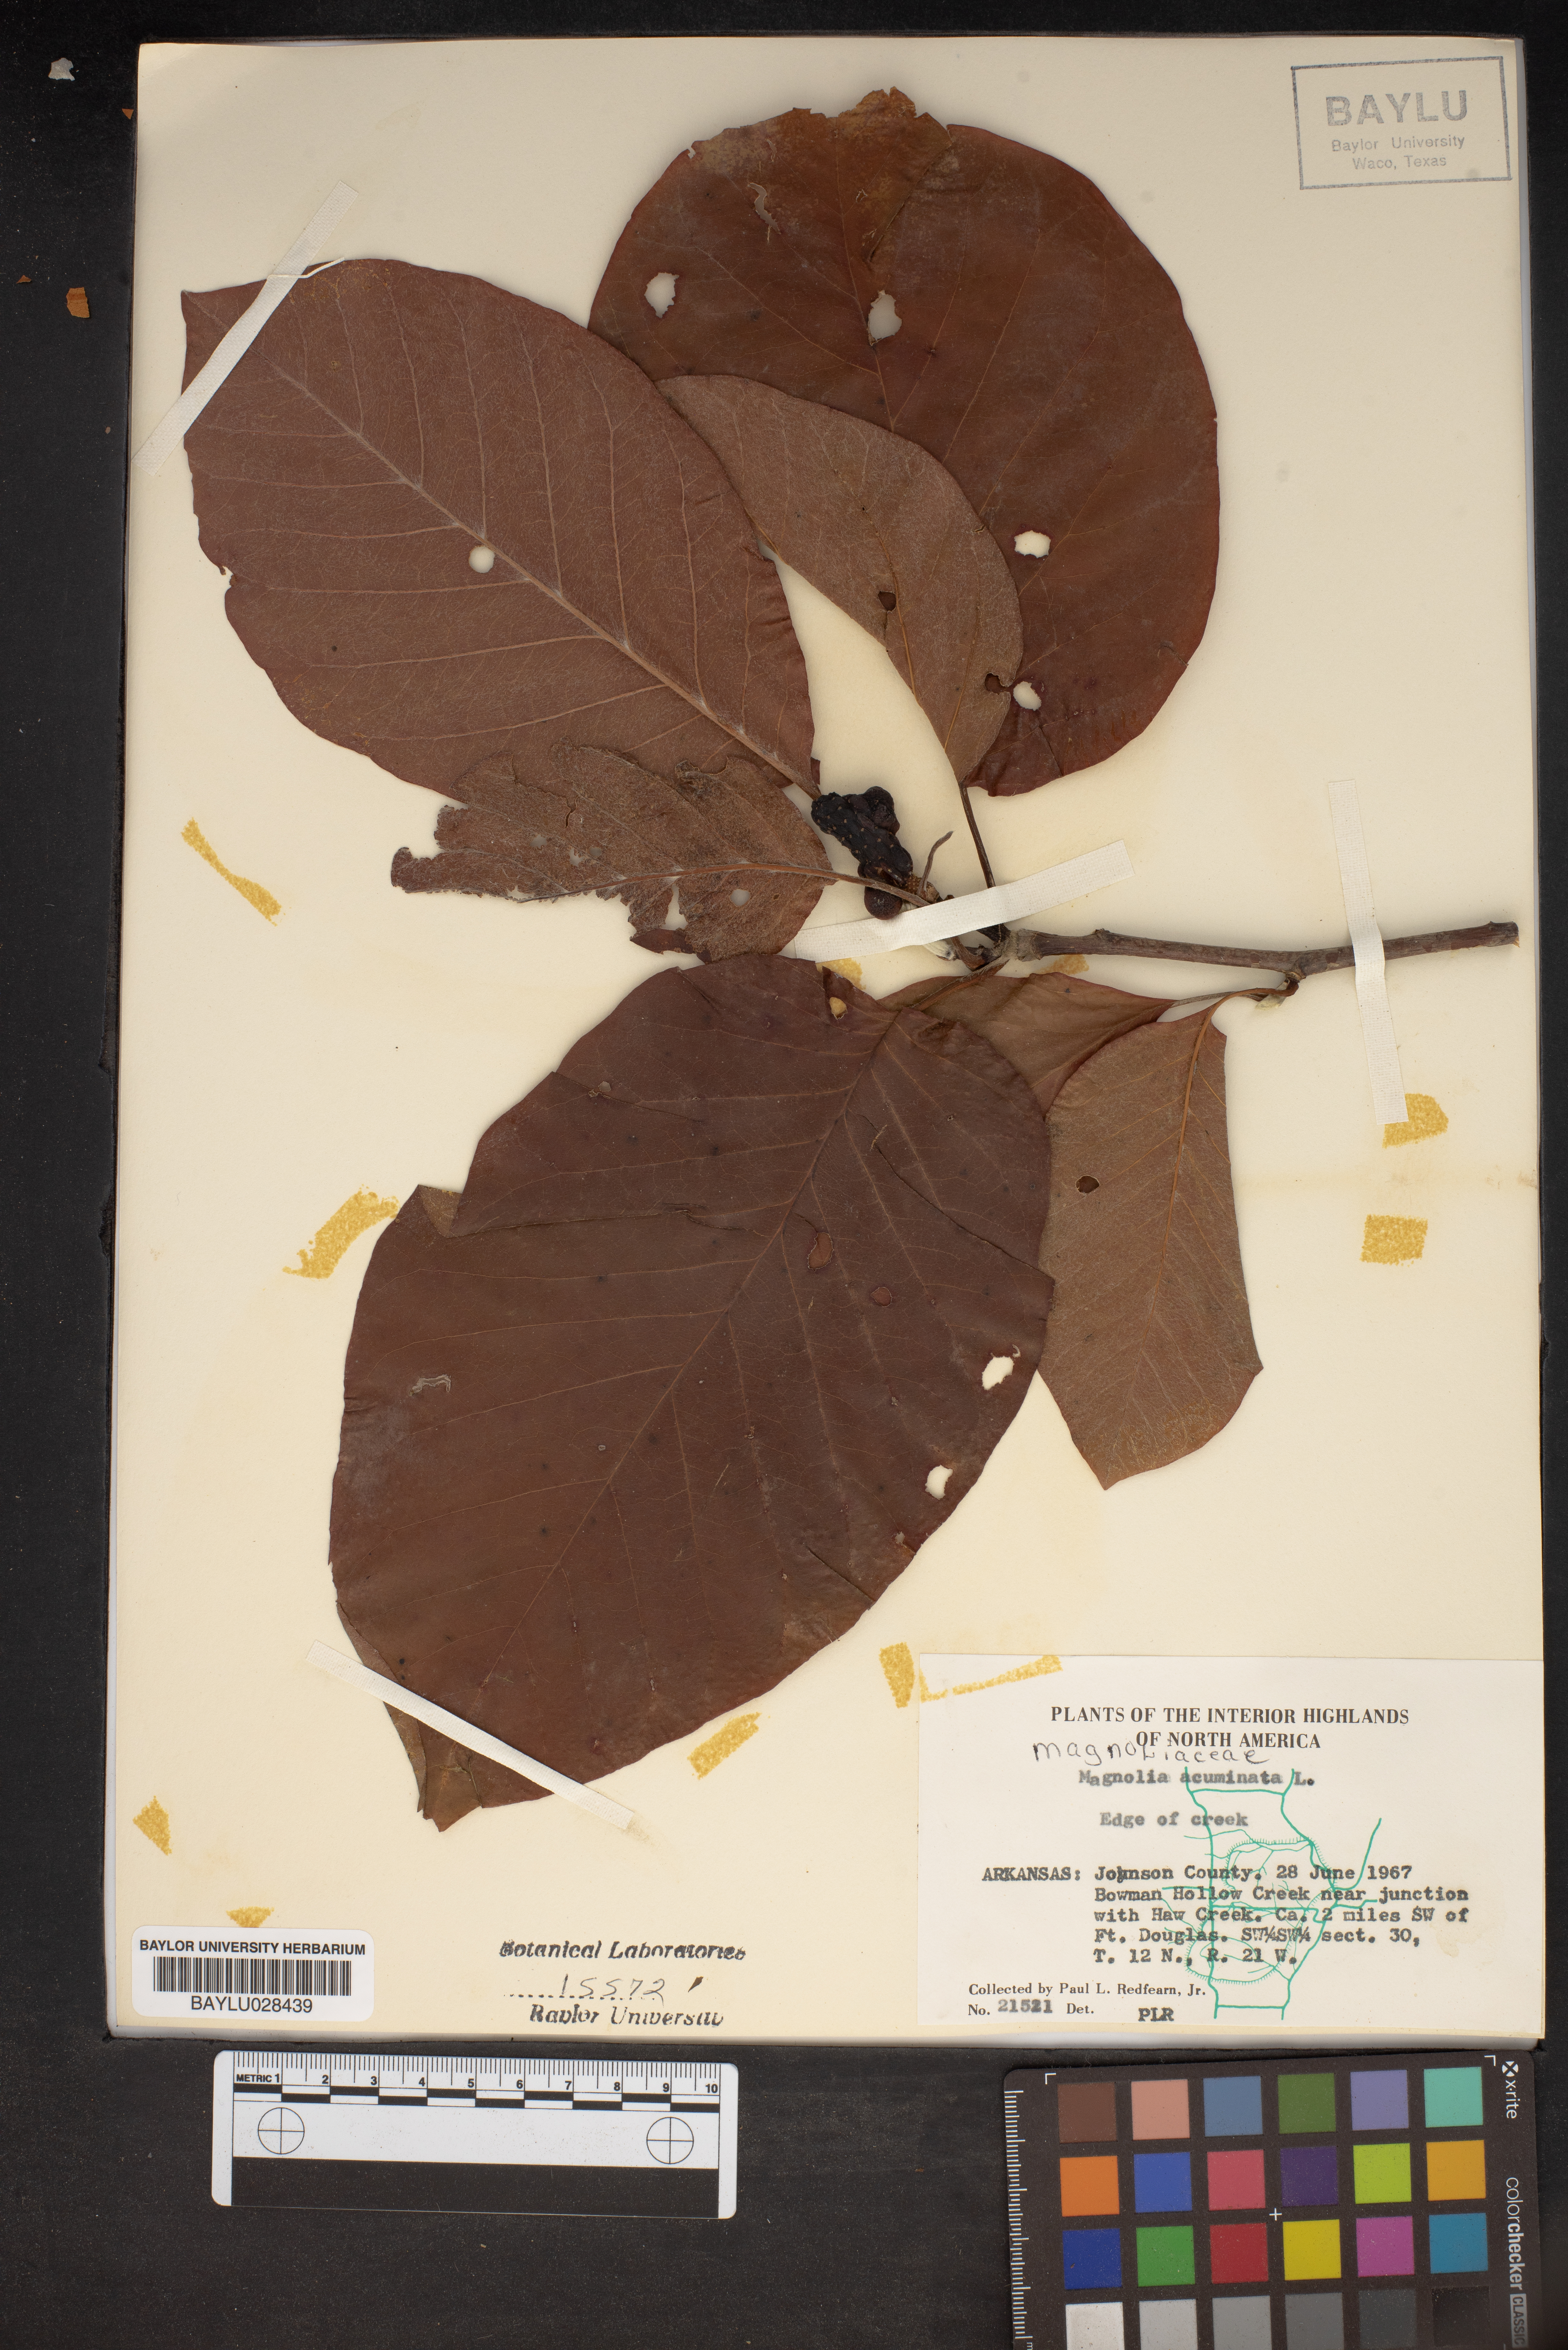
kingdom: Plantae
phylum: Tracheophyta
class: Magnoliopsida
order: Magnoliales
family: Magnoliaceae
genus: Magnolia
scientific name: Magnolia acuminata
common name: Cucumber magnolia
